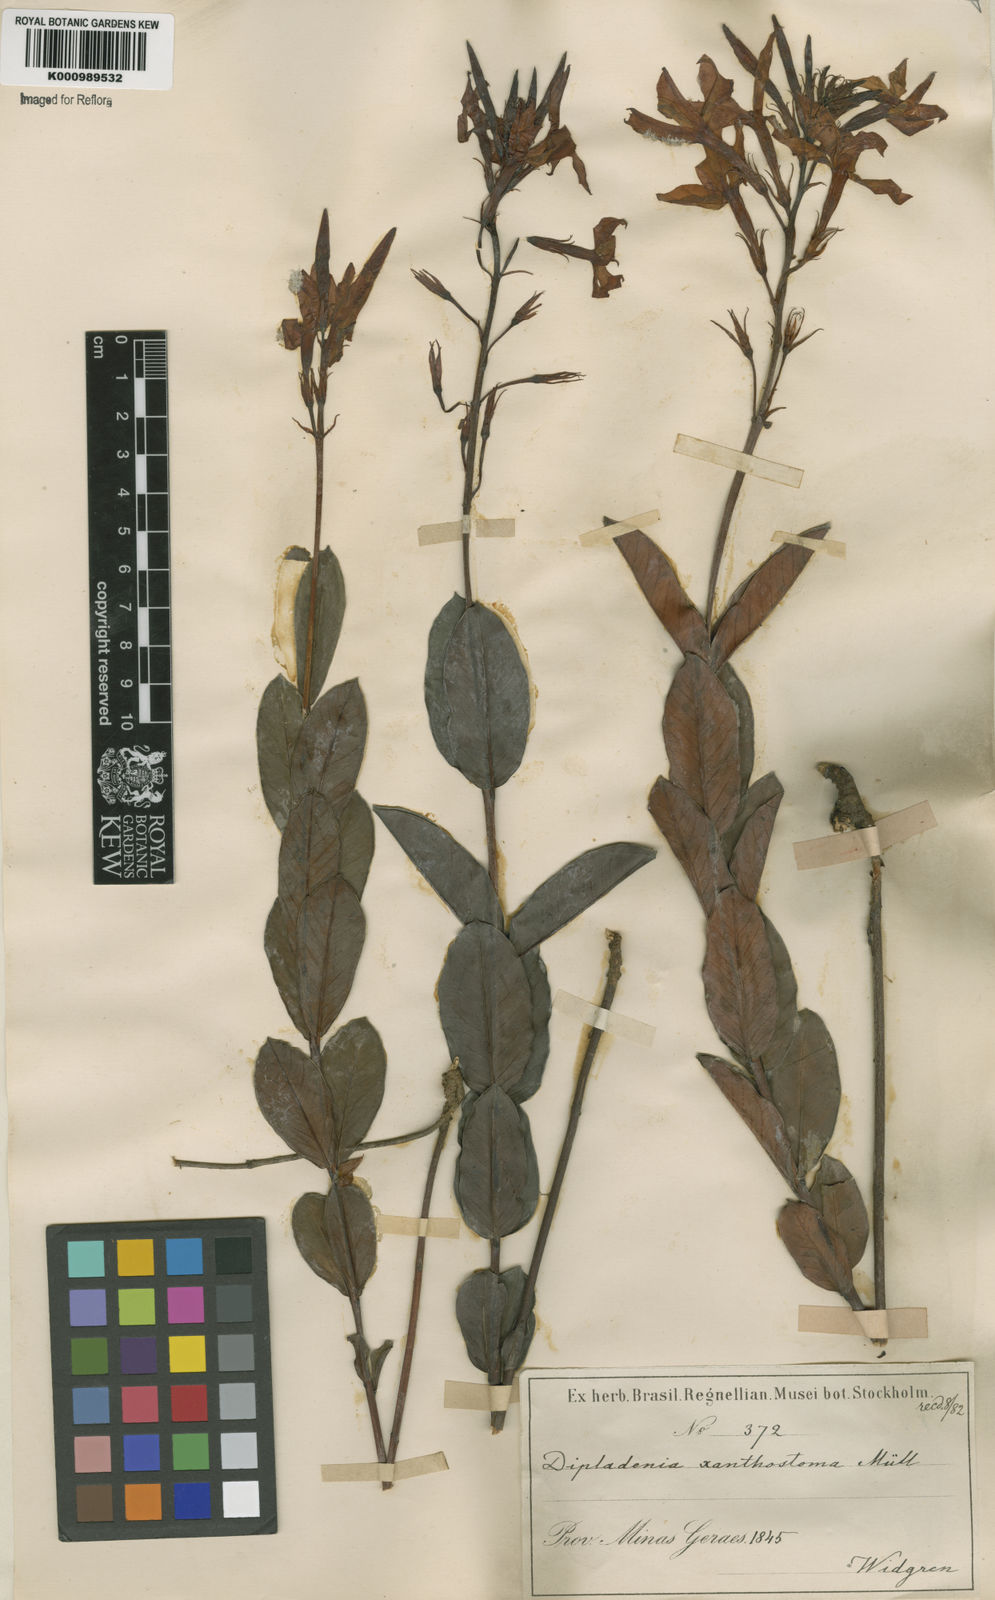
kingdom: Plantae
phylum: Tracheophyta
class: Magnoliopsida
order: Gentianales
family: Apocynaceae
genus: Mandevilla
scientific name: Mandevilla
